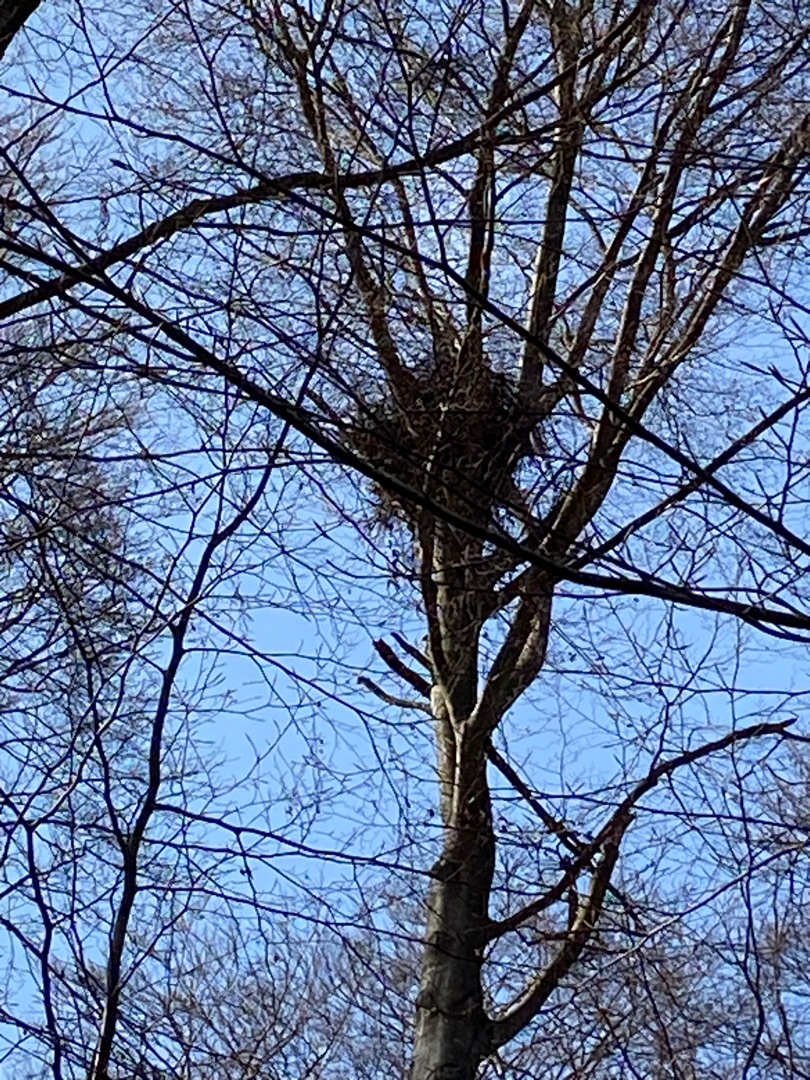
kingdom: Animalia
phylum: Chordata
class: Aves
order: Accipitriformes
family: Accipitridae
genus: Haliaeetus
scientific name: Haliaeetus albicilla
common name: Havørn
